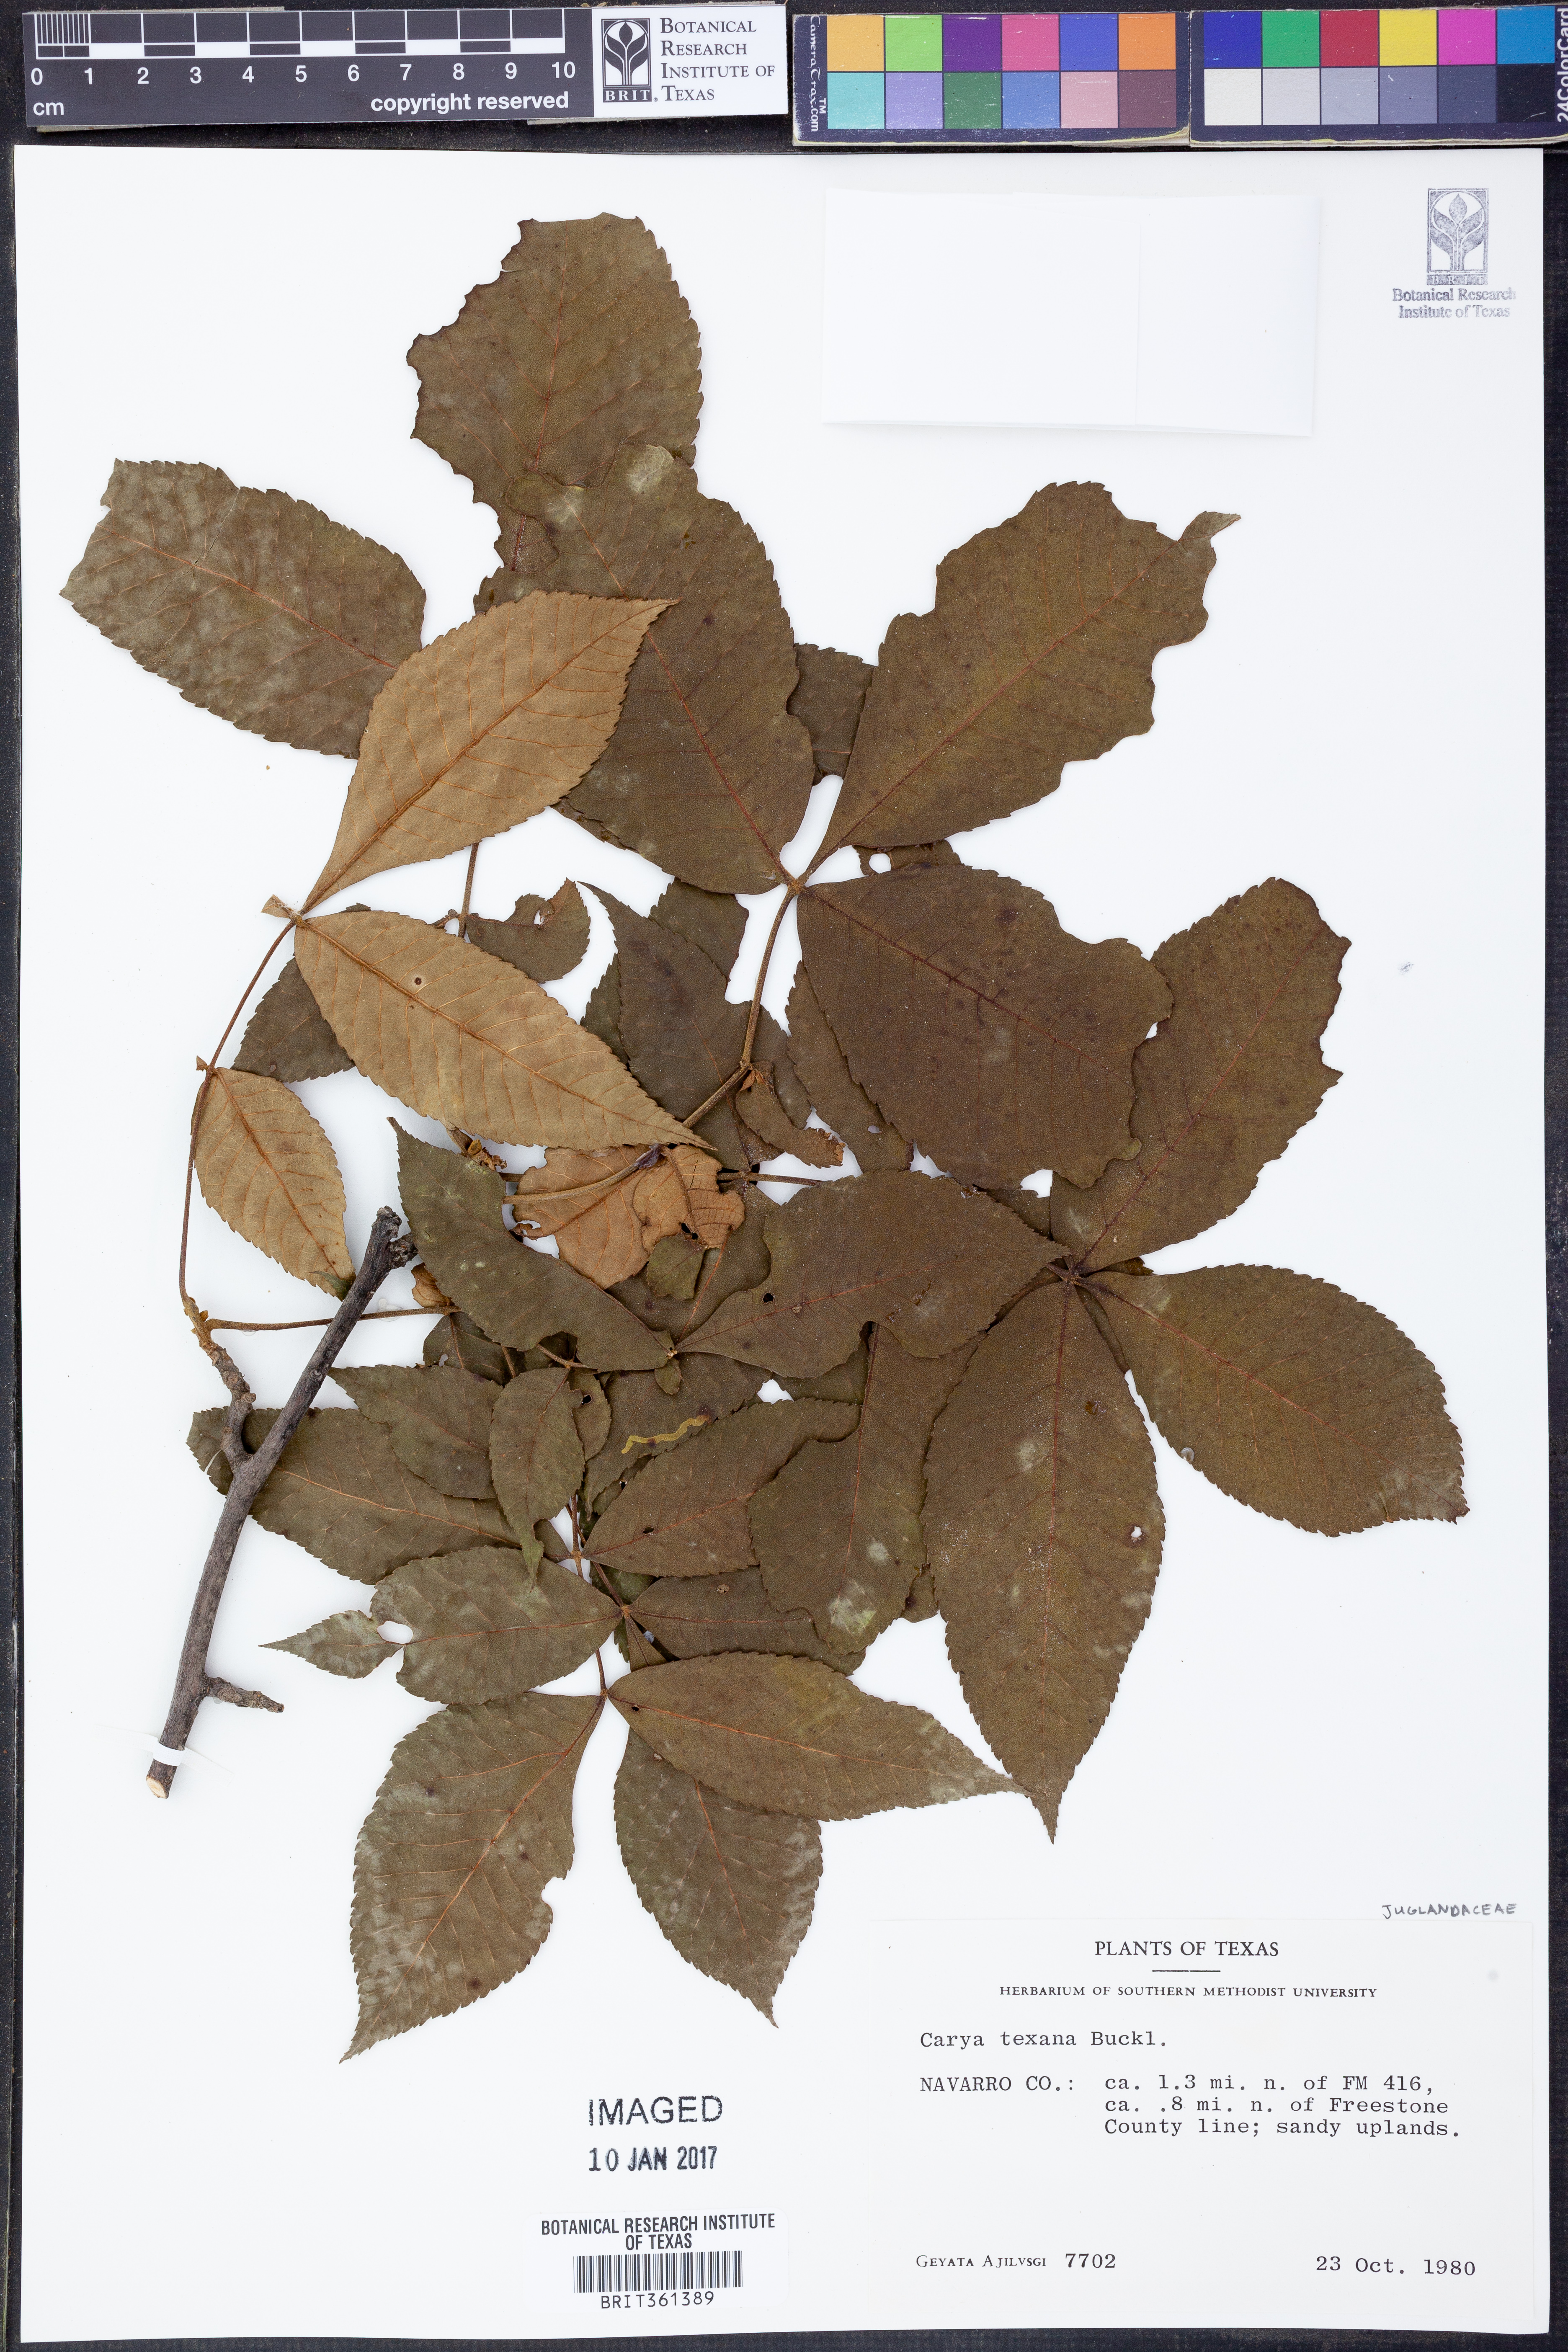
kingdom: Plantae
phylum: Tracheophyta
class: Magnoliopsida
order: Fagales
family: Juglandaceae
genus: Carya
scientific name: Carya texana
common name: Black hickory
